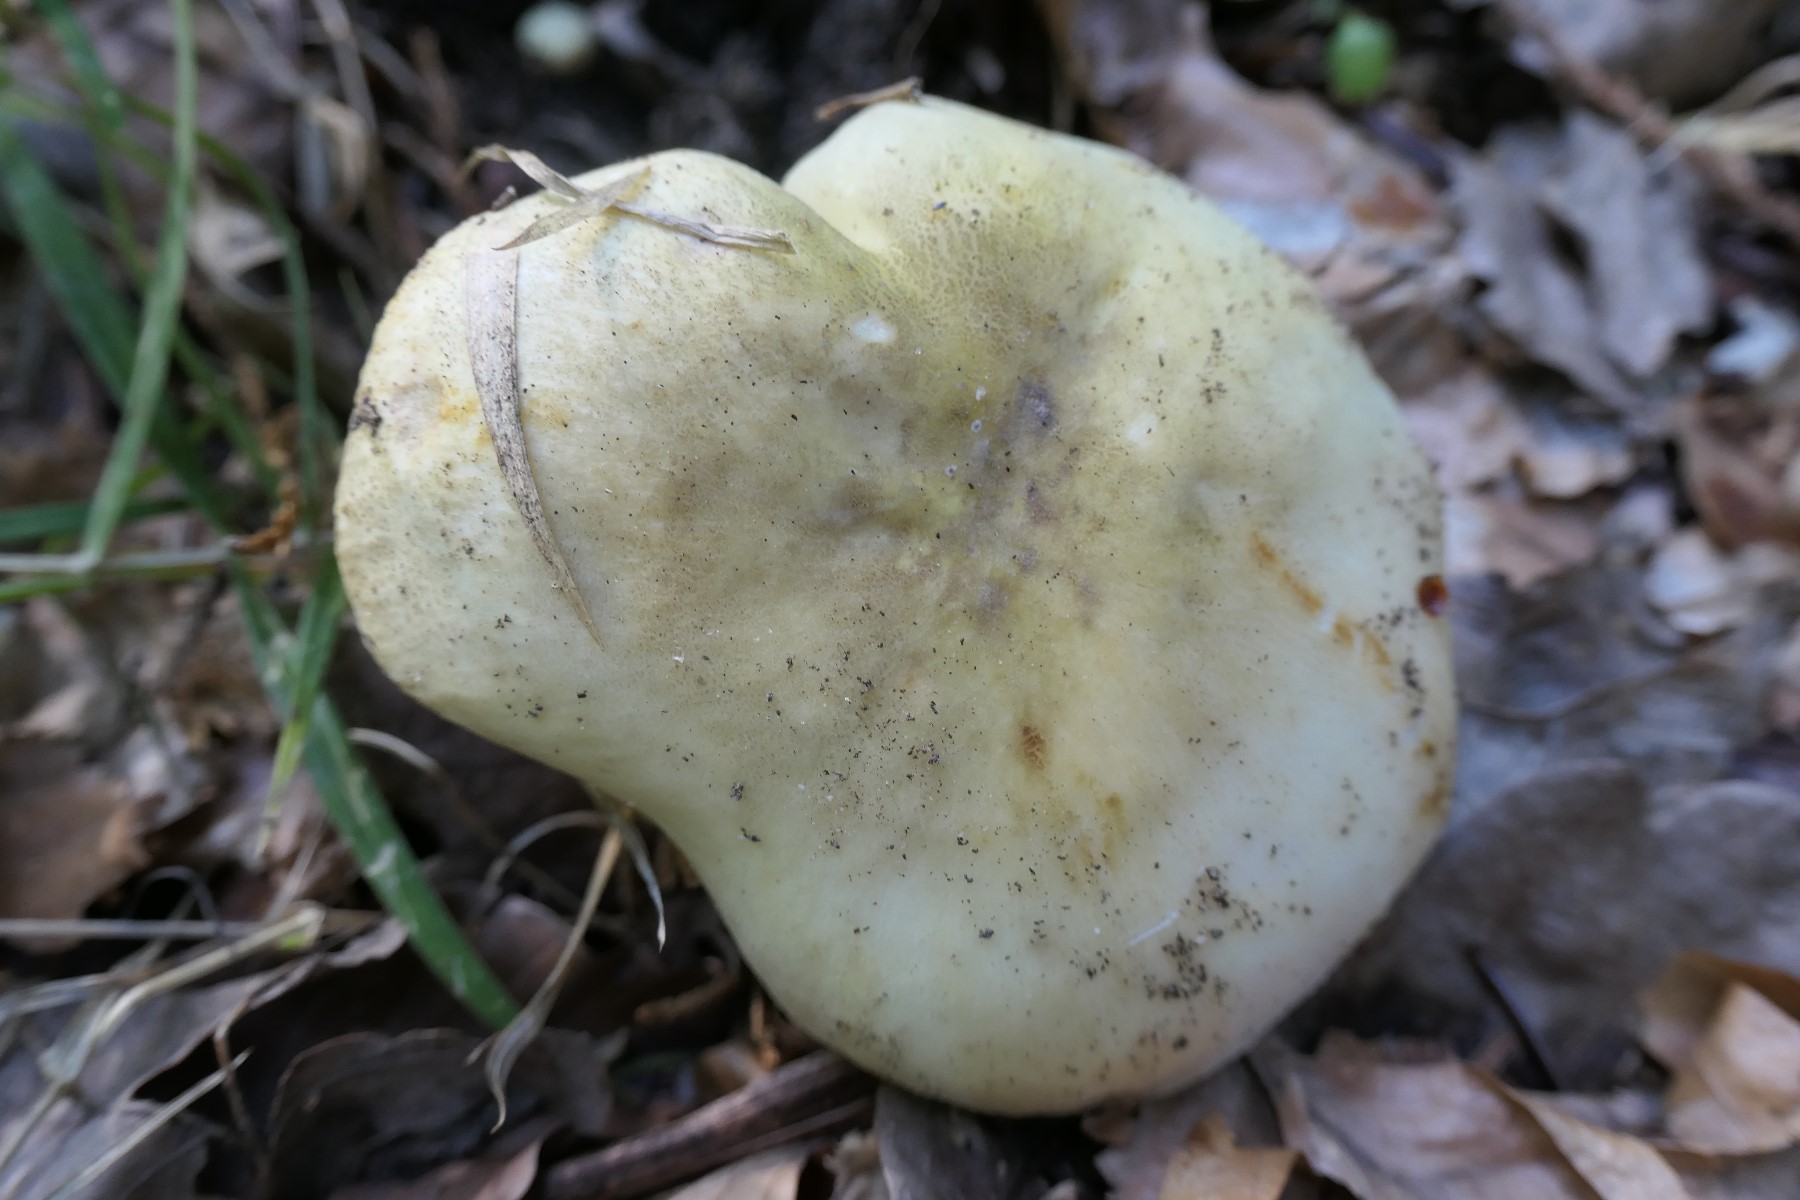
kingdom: Fungi
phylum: Basidiomycota
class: Agaricomycetes
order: Russulales
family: Russulaceae
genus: Russula
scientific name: Russula violeipes
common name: ferskengul skørhat
